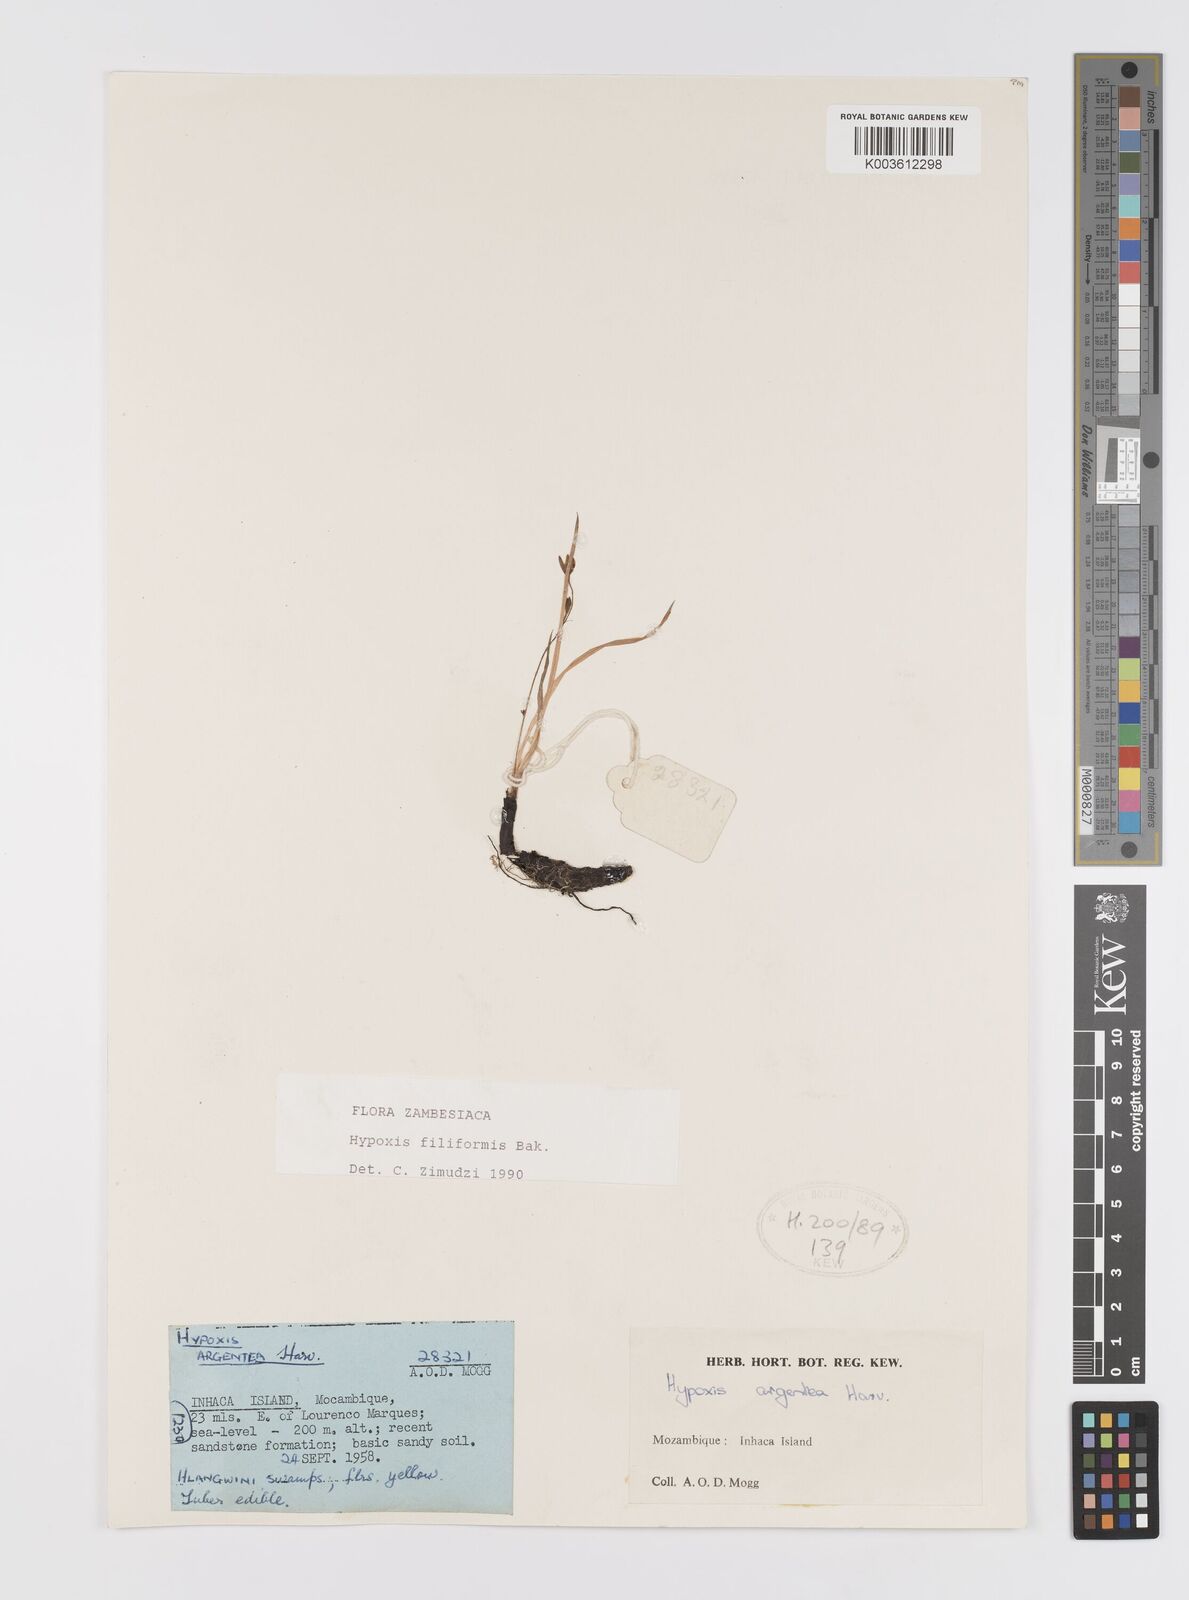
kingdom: Plantae
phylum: Tracheophyta
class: Liliopsida
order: Asparagales
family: Hypoxidaceae
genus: Hypoxis
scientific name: Hypoxis filiformis
